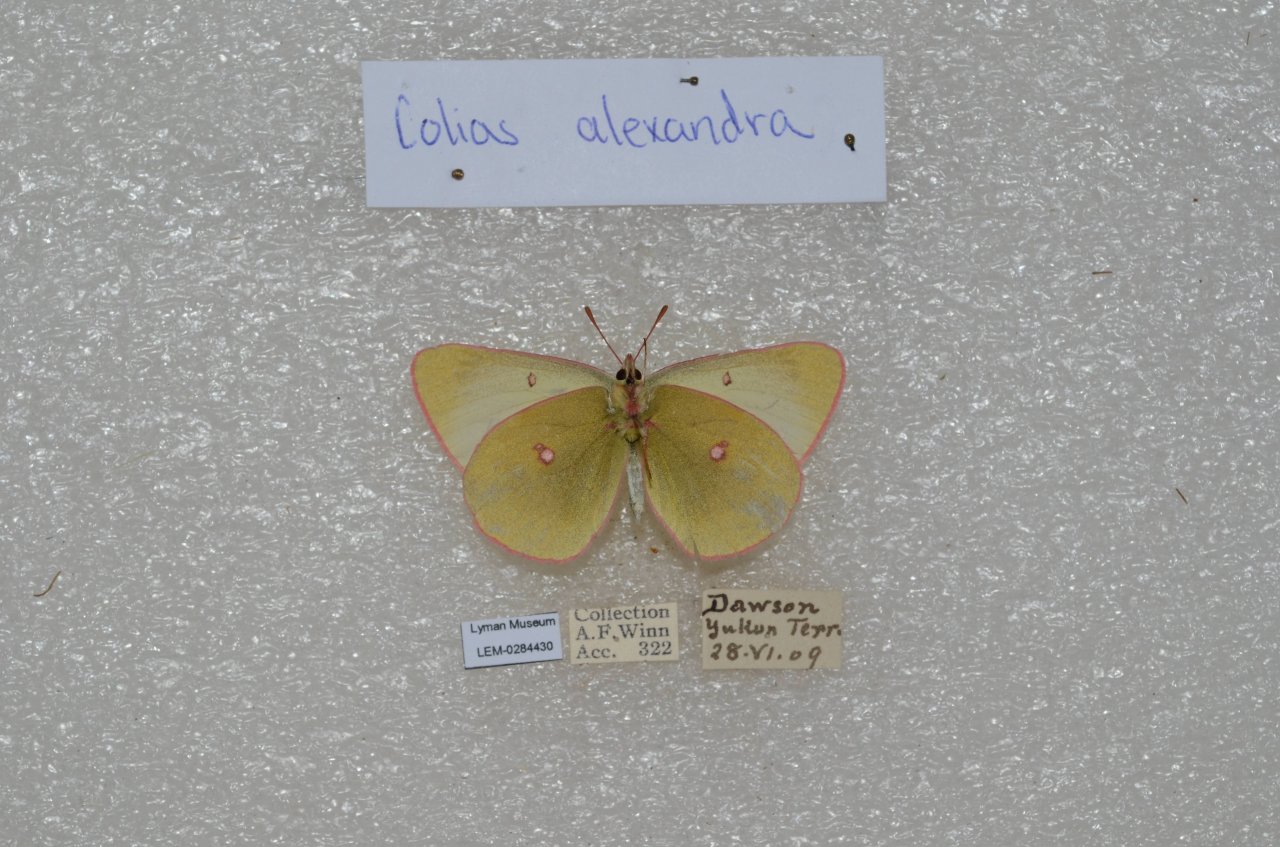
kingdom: Animalia
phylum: Arthropoda
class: Insecta
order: Lepidoptera
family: Pieridae
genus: Colias
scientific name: Colias
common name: Clouded Yellows
